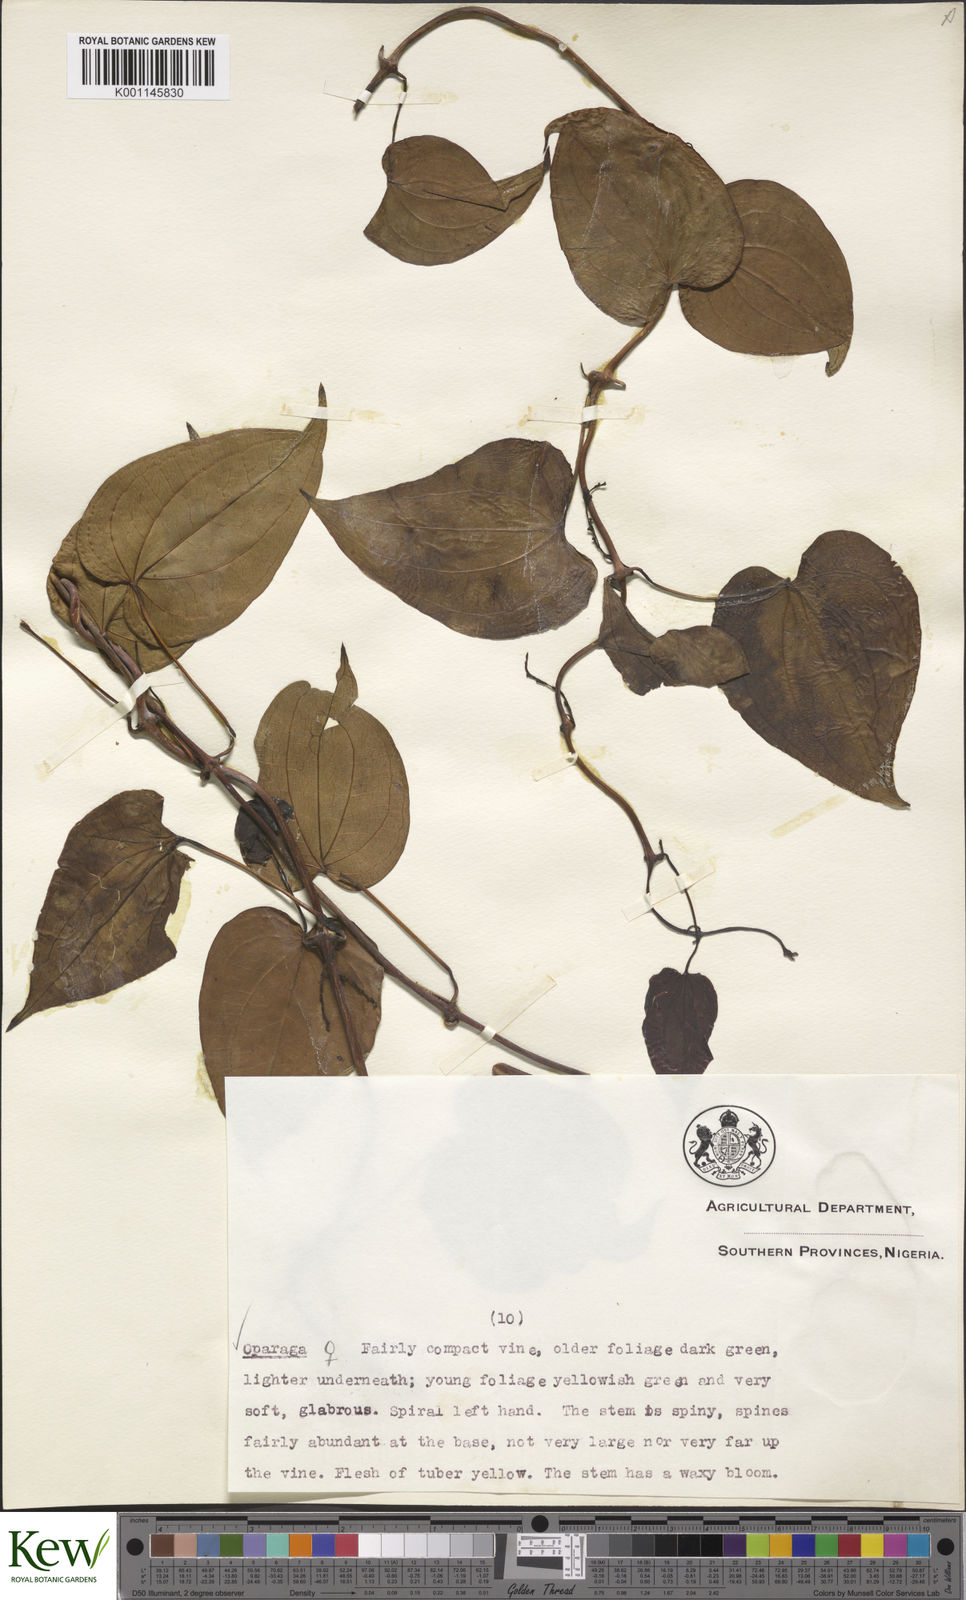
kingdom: Plantae
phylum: Tracheophyta
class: Liliopsida
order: Dioscoreales
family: Dioscoreaceae
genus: Dioscorea
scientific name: Dioscorea cayenensis
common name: Attoto yam
